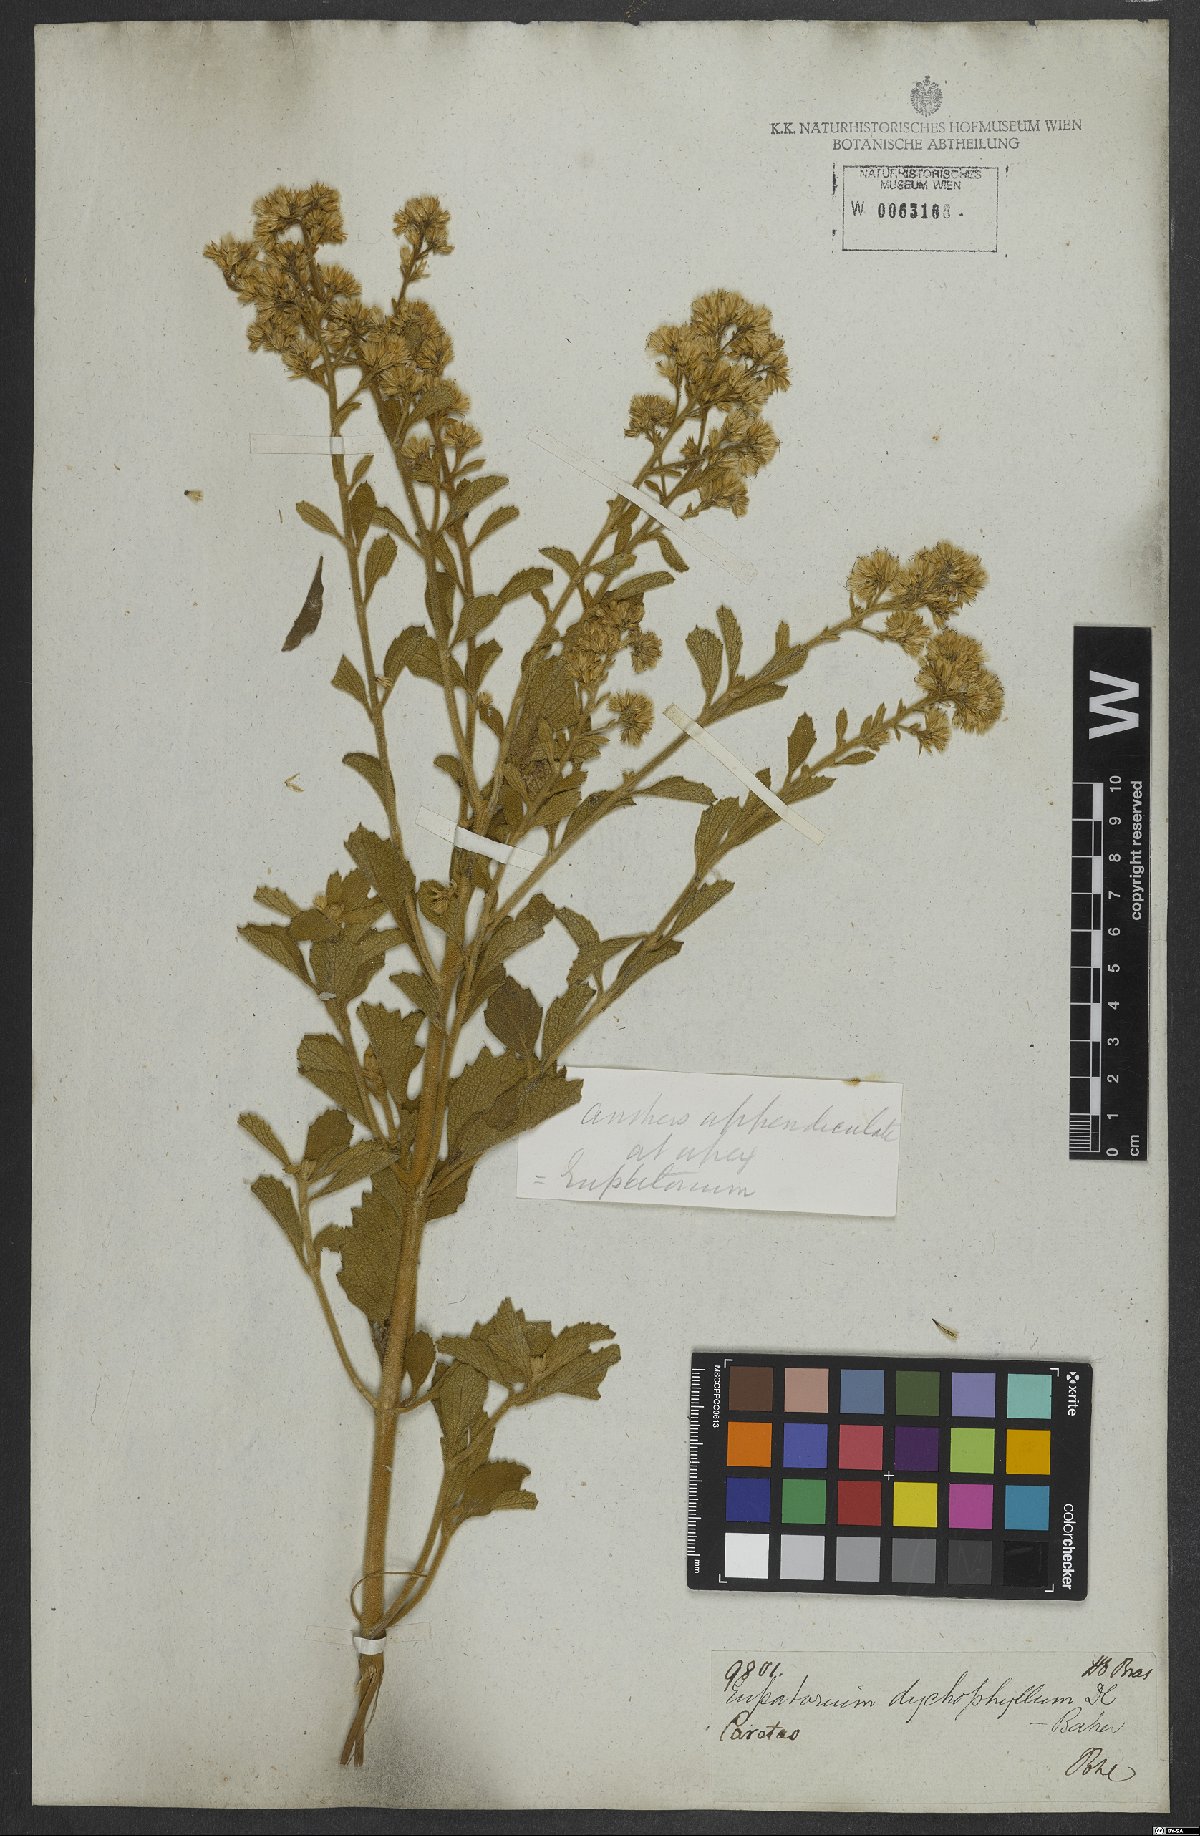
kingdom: Plantae
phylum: Tracheophyta
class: Magnoliopsida
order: Asterales
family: Asteraceae
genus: Stomatanthes
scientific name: Stomatanthes dictyophyllus
